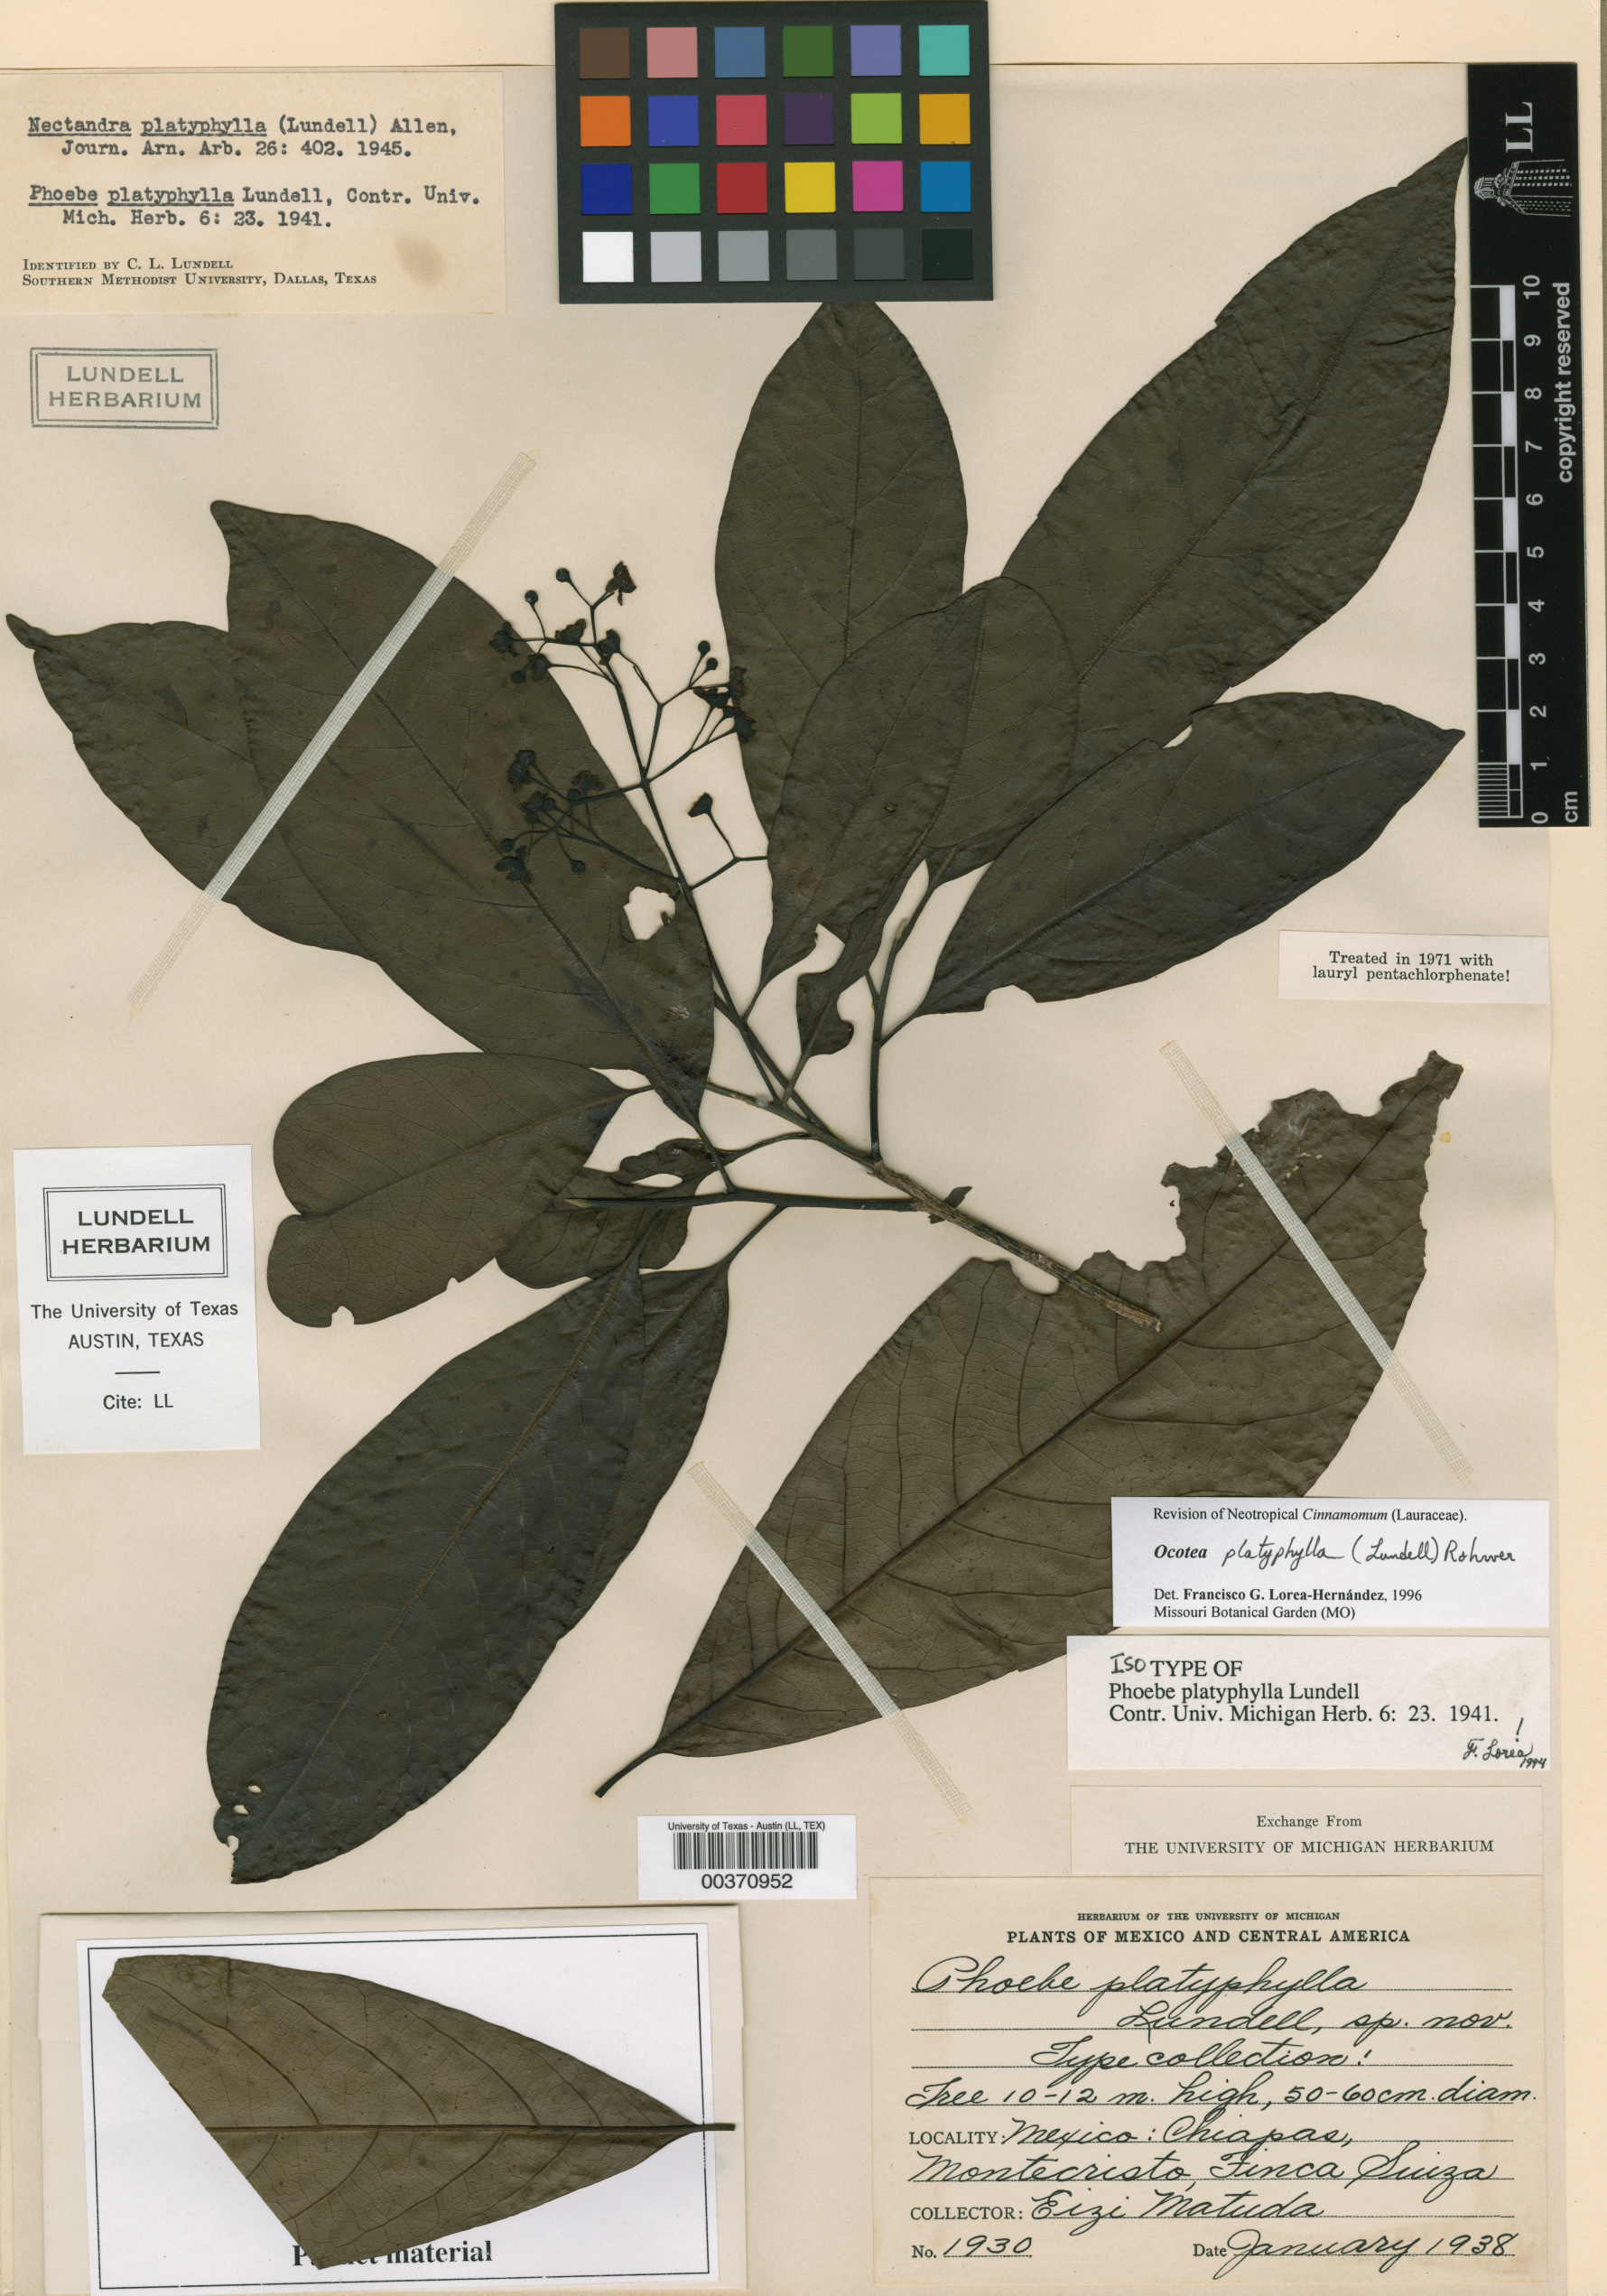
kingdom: Plantae
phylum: Tracheophyta
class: Magnoliopsida
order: Laurales
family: Lauraceae
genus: Ocotea
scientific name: Ocotea platyphylla
